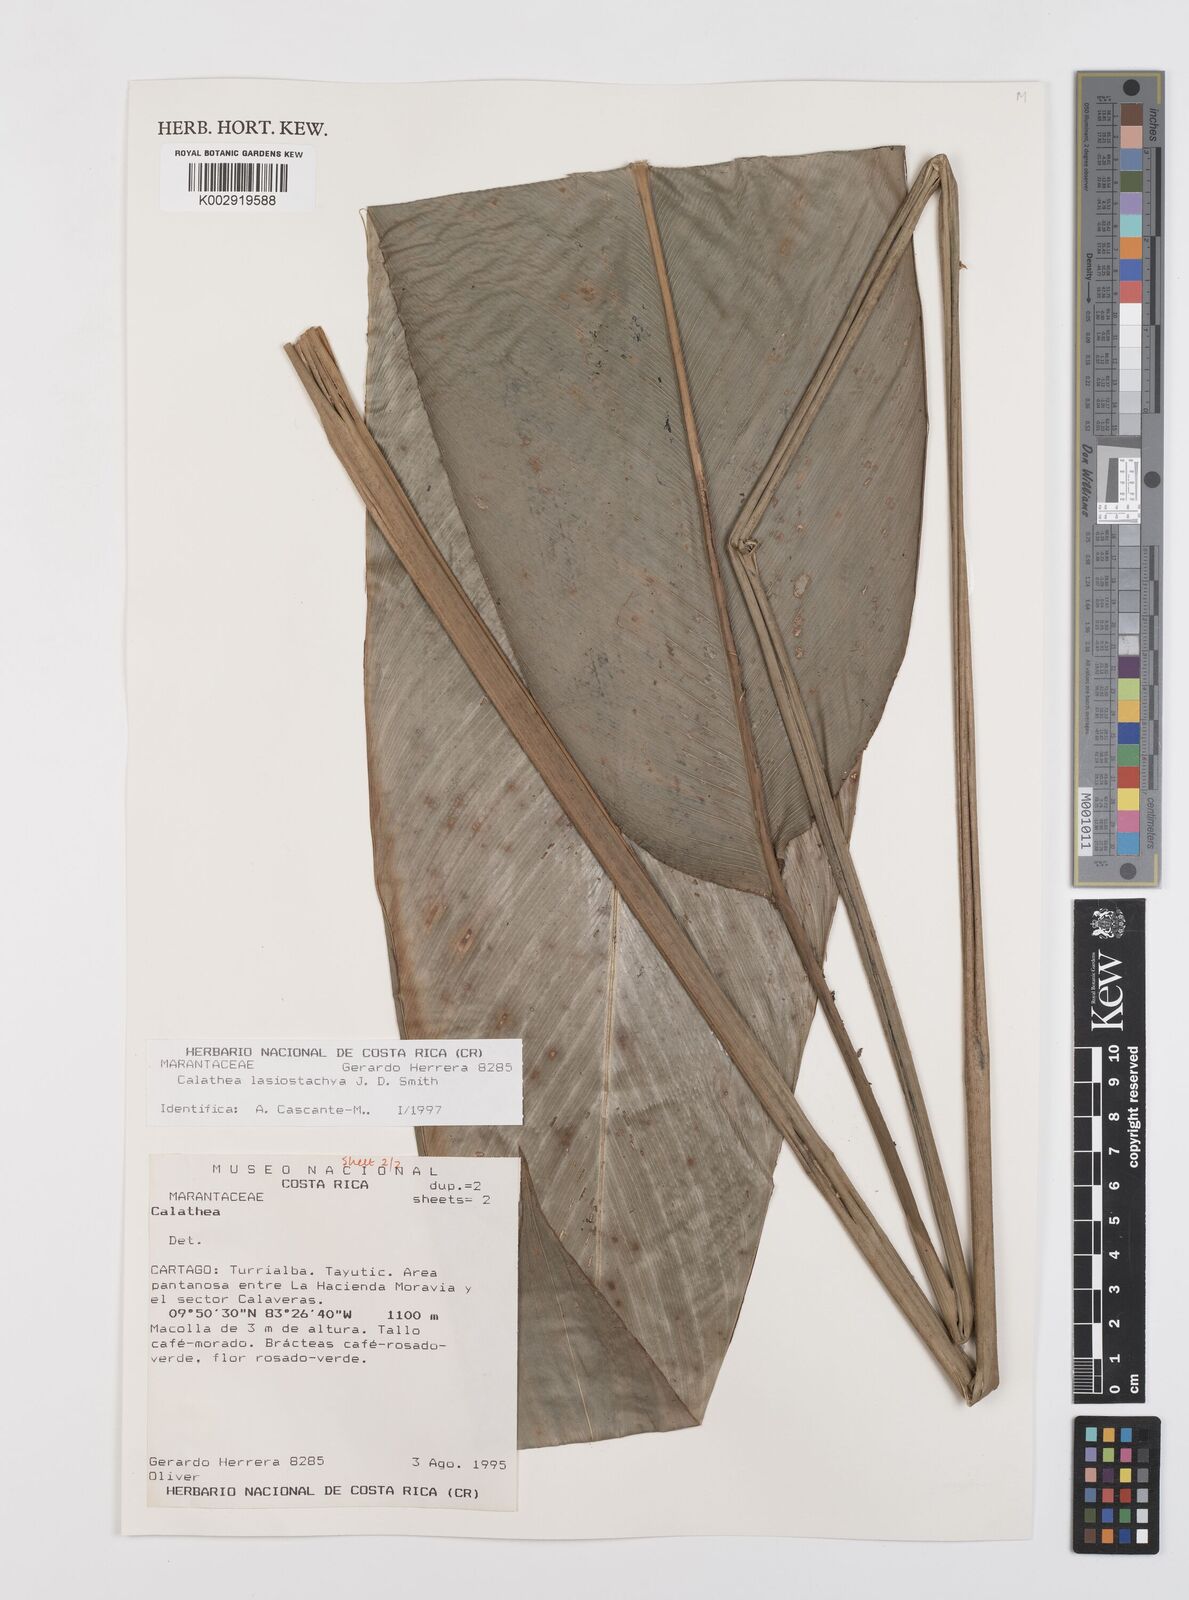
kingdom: Plantae
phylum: Tracheophyta
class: Liliopsida
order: Zingiberales
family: Marantaceae
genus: Calathea
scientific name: Calathea lasiostachya
